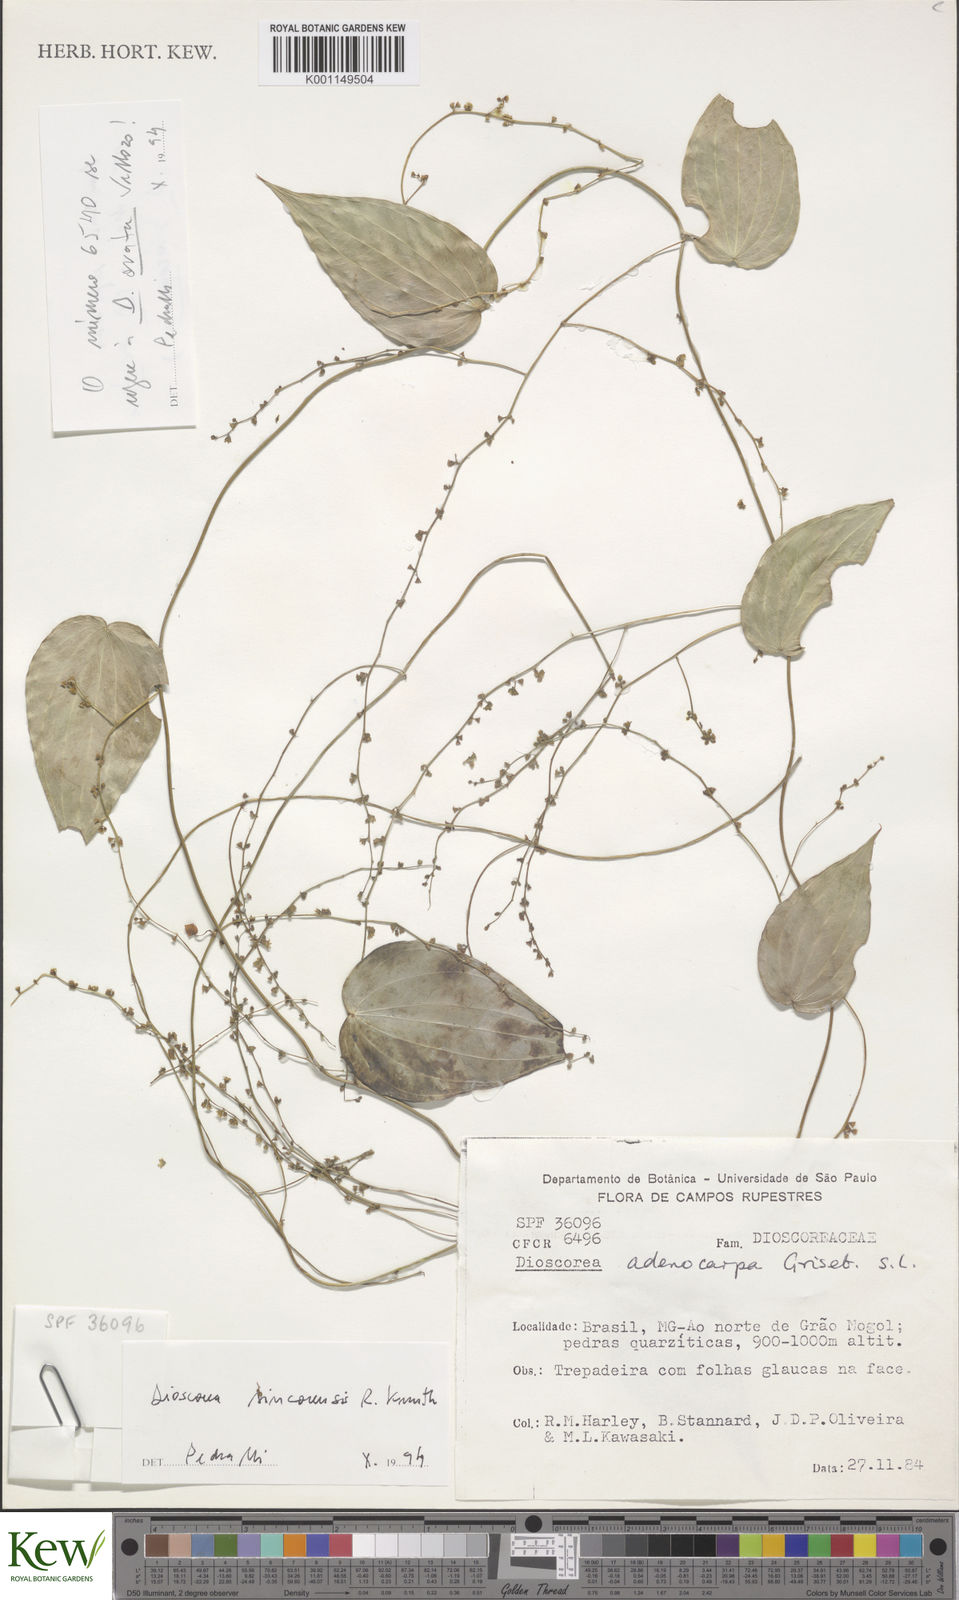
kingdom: Plantae
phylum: Tracheophyta
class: Liliopsida
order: Dioscoreales
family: Dioscoreaceae
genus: Dioscorea
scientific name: Dioscorea sincorensis
